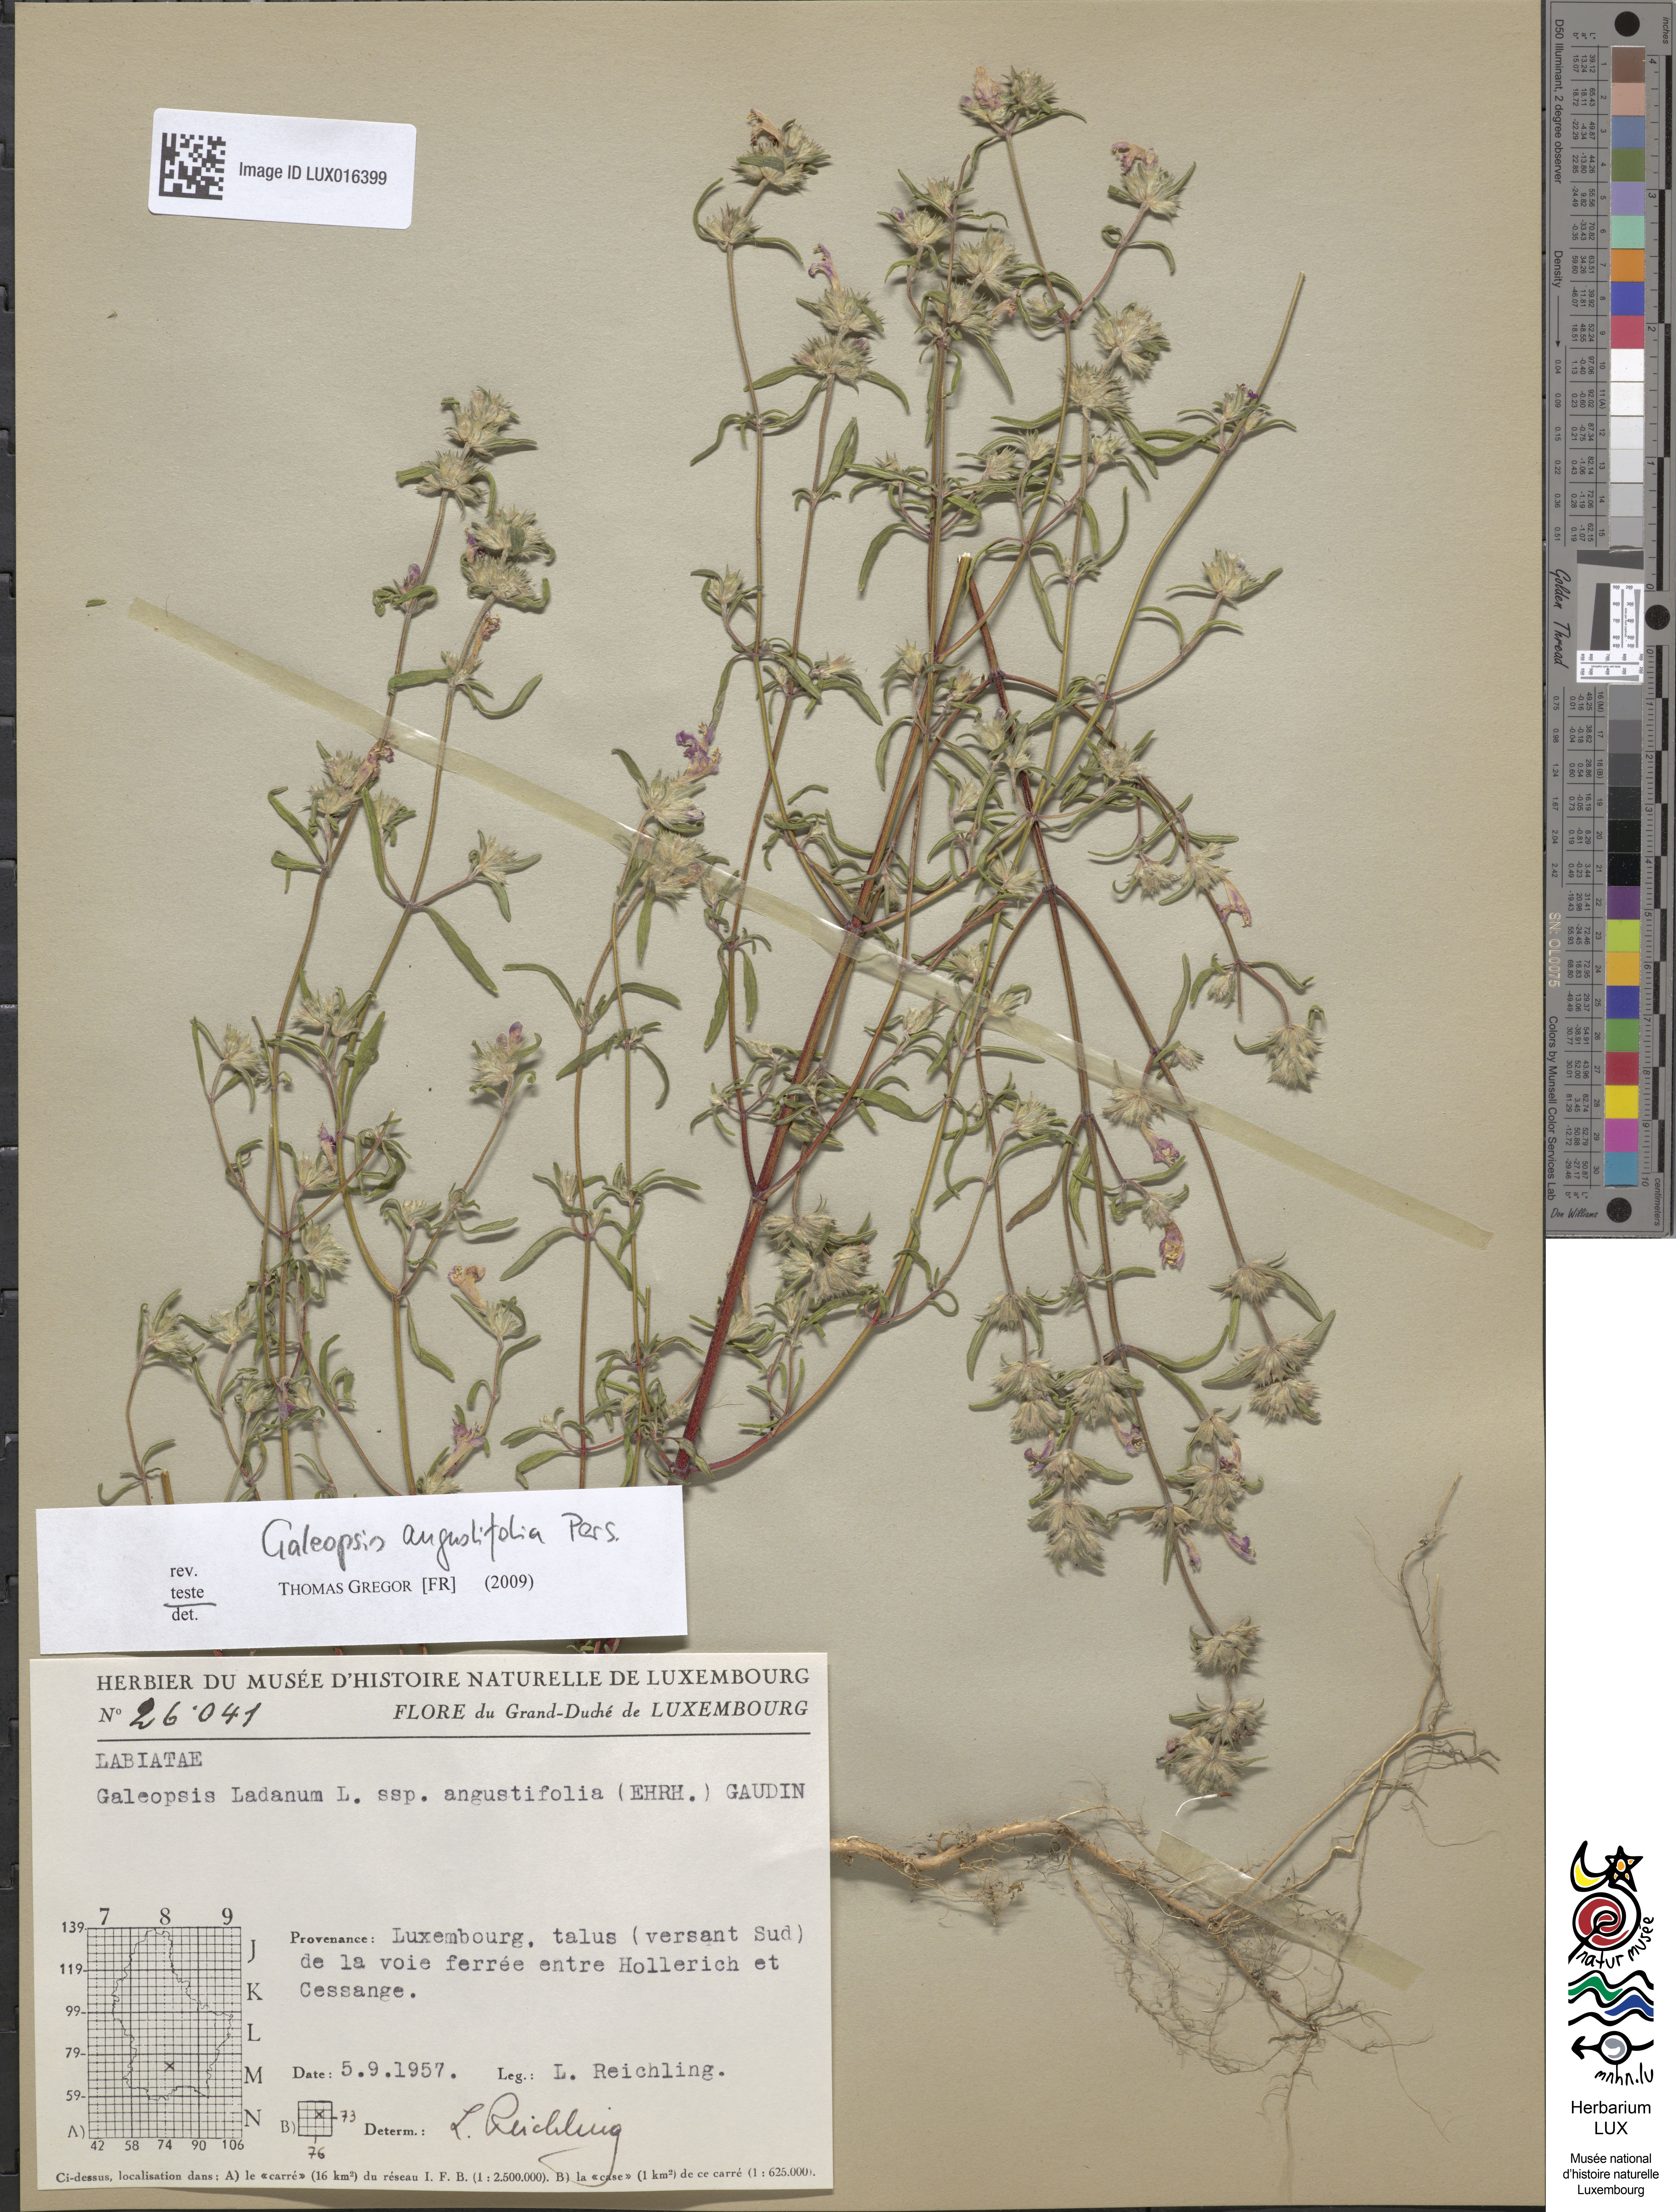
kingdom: Plantae
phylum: Tracheophyta
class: Magnoliopsida
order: Lamiales
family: Lamiaceae
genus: Galeopsis
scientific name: Galeopsis angustifolia
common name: Red hemp-nettle
